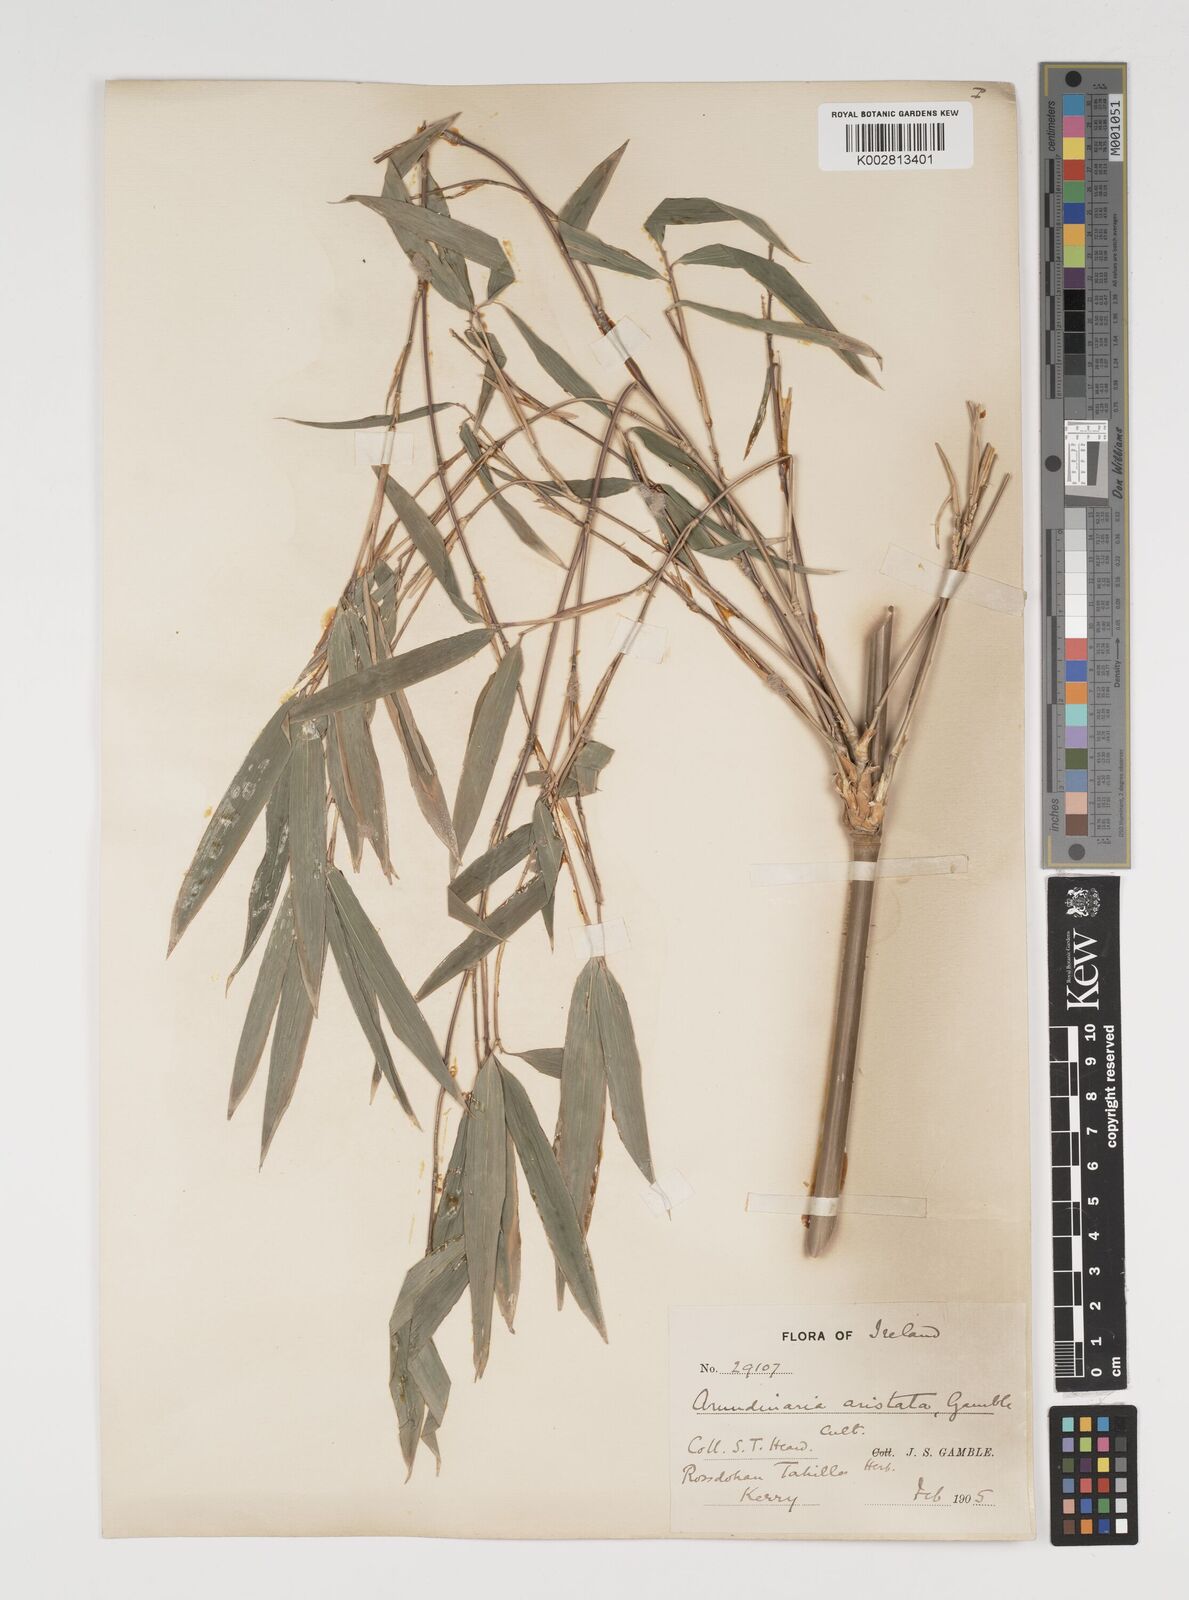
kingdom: Plantae
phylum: Tracheophyta
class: Liliopsida
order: Poales
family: Poaceae
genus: Thamnocalamus
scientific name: Thamnocalamus spathiflorus
